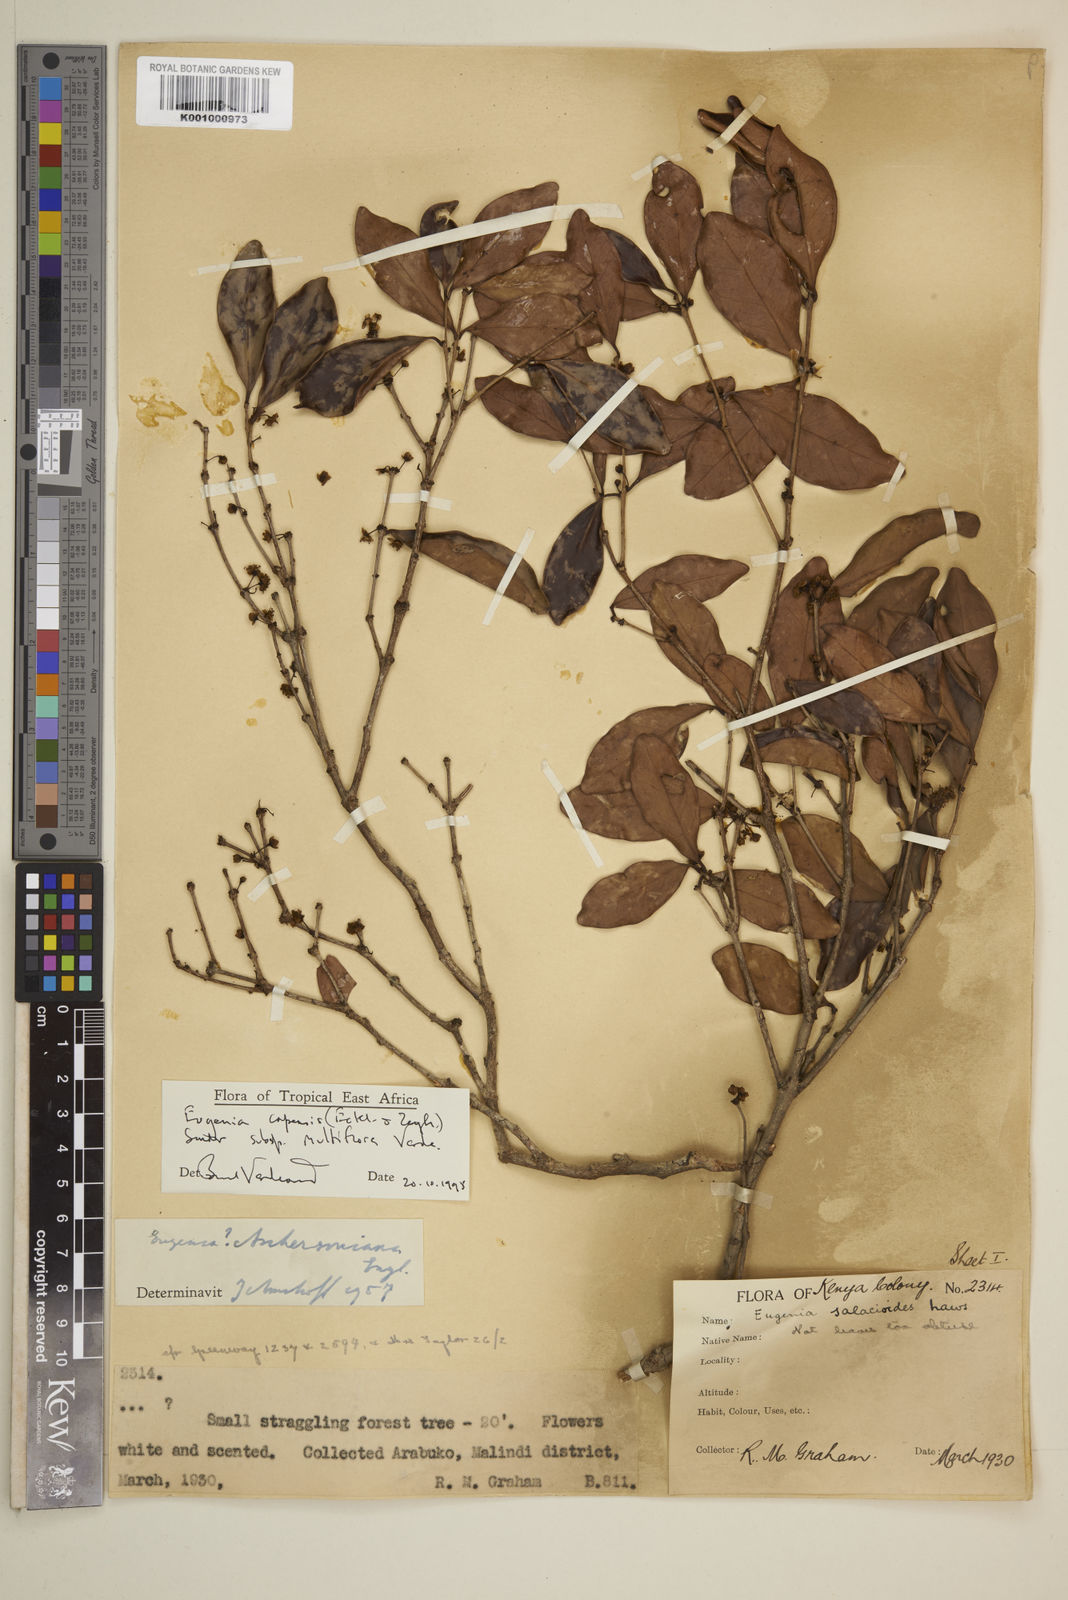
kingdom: Plantae
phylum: Tracheophyta
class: Magnoliopsida
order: Myrtales
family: Myrtaceae
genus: Eugenia
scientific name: Eugenia capensis
